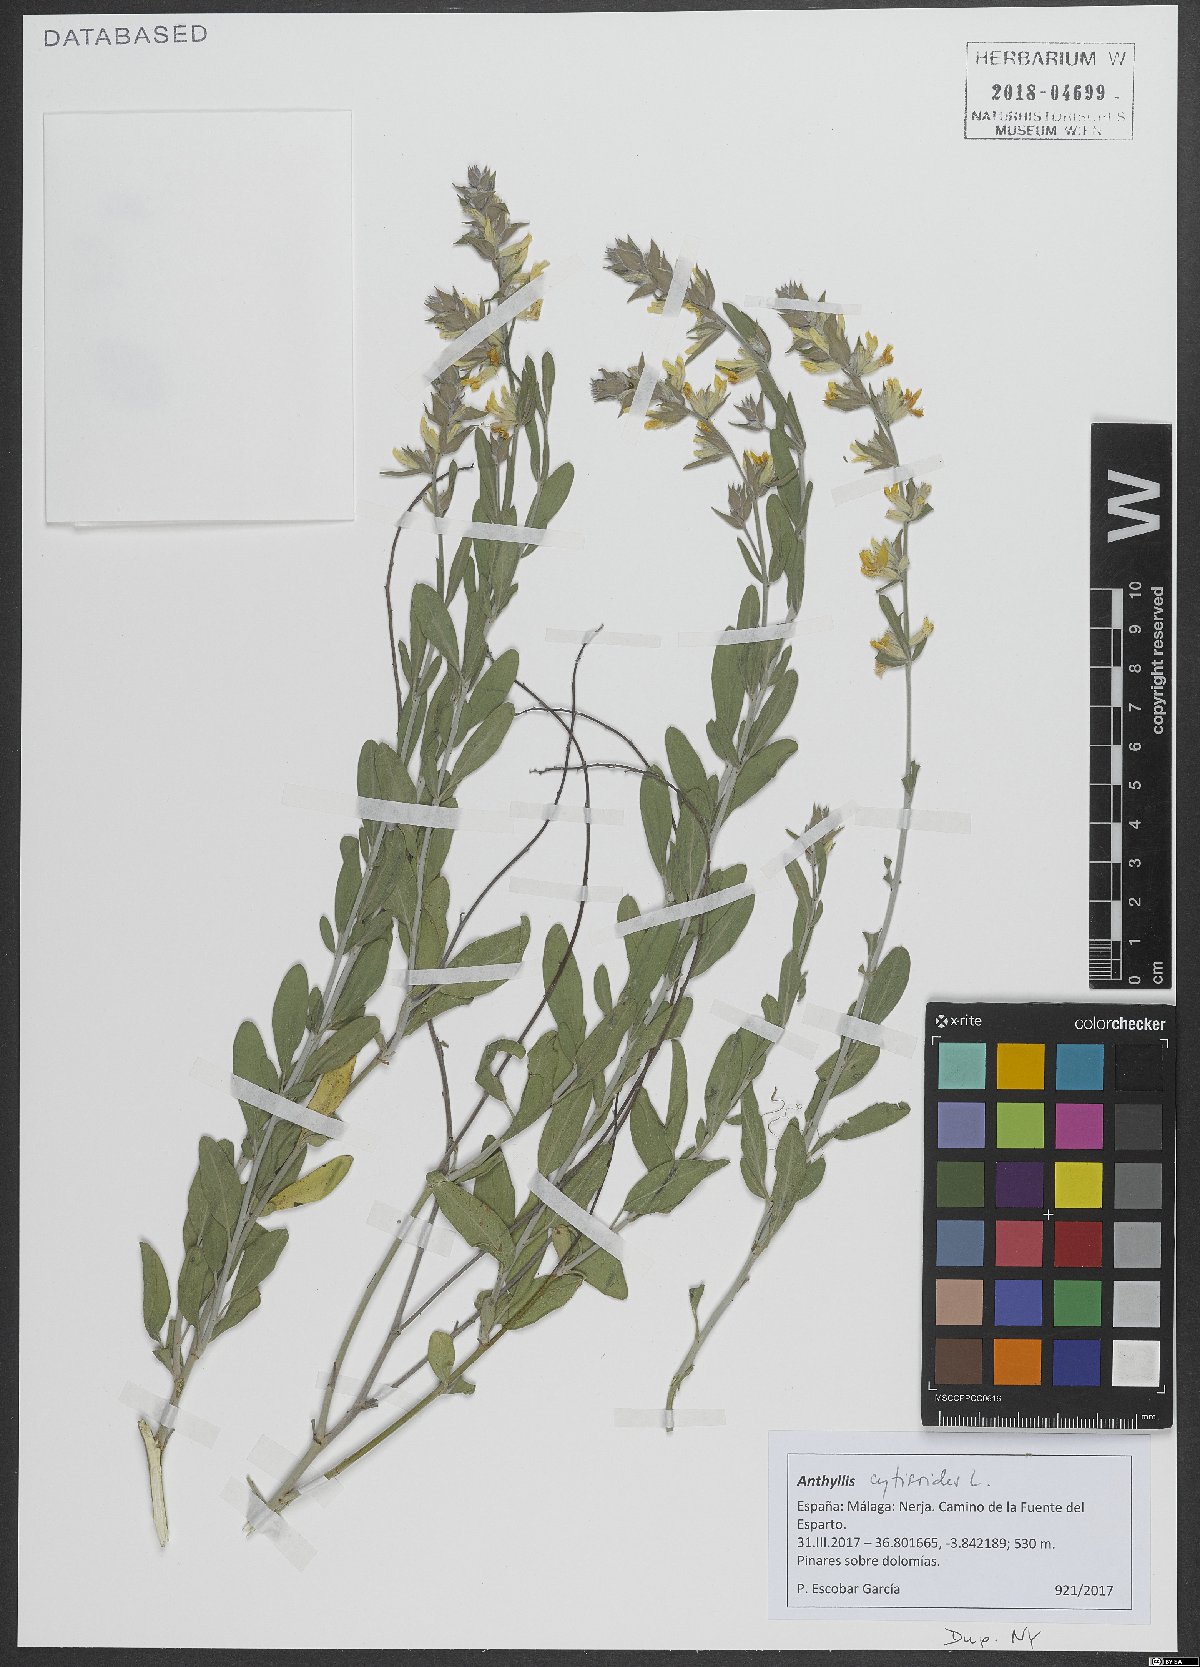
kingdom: Plantae
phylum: Tracheophyta
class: Magnoliopsida
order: Fabales
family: Fabaceae
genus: Anthyllis
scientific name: Anthyllis cytisoides
